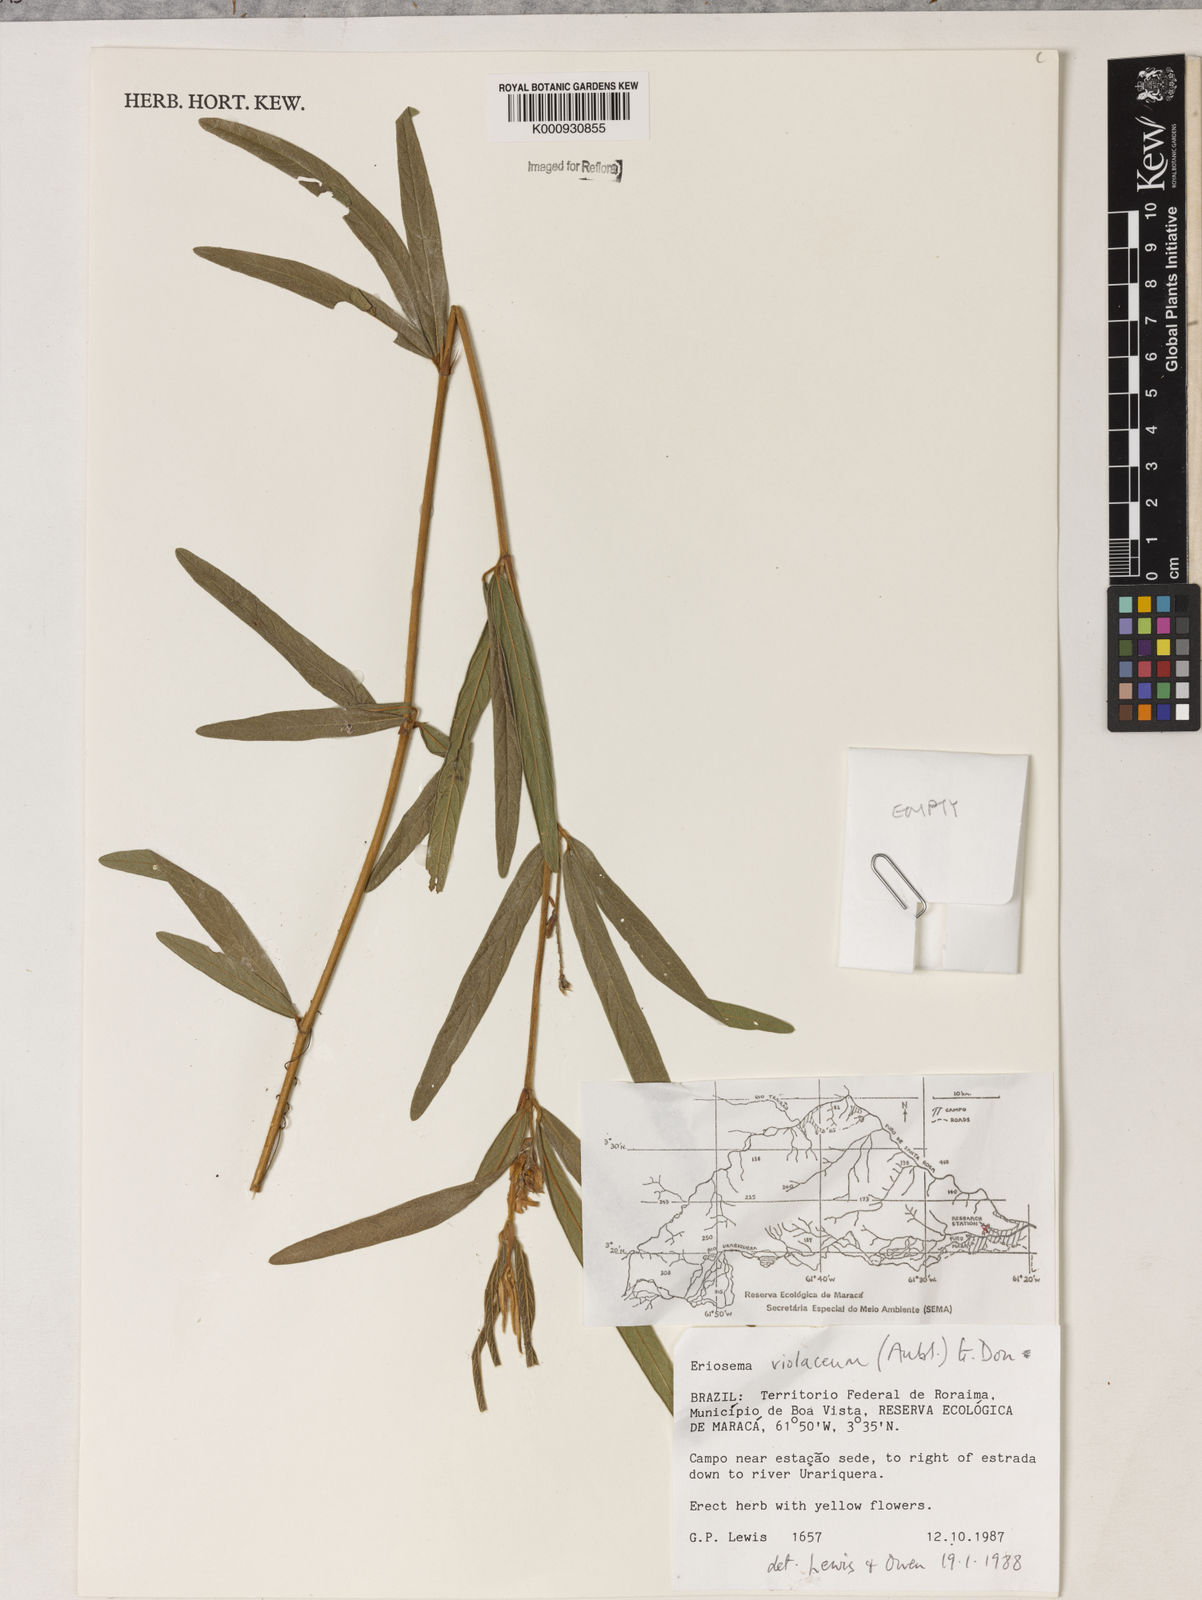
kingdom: Plantae
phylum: Tracheophyta
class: Magnoliopsida
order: Fabales
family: Fabaceae
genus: Eriosema
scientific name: Eriosema violaceum
